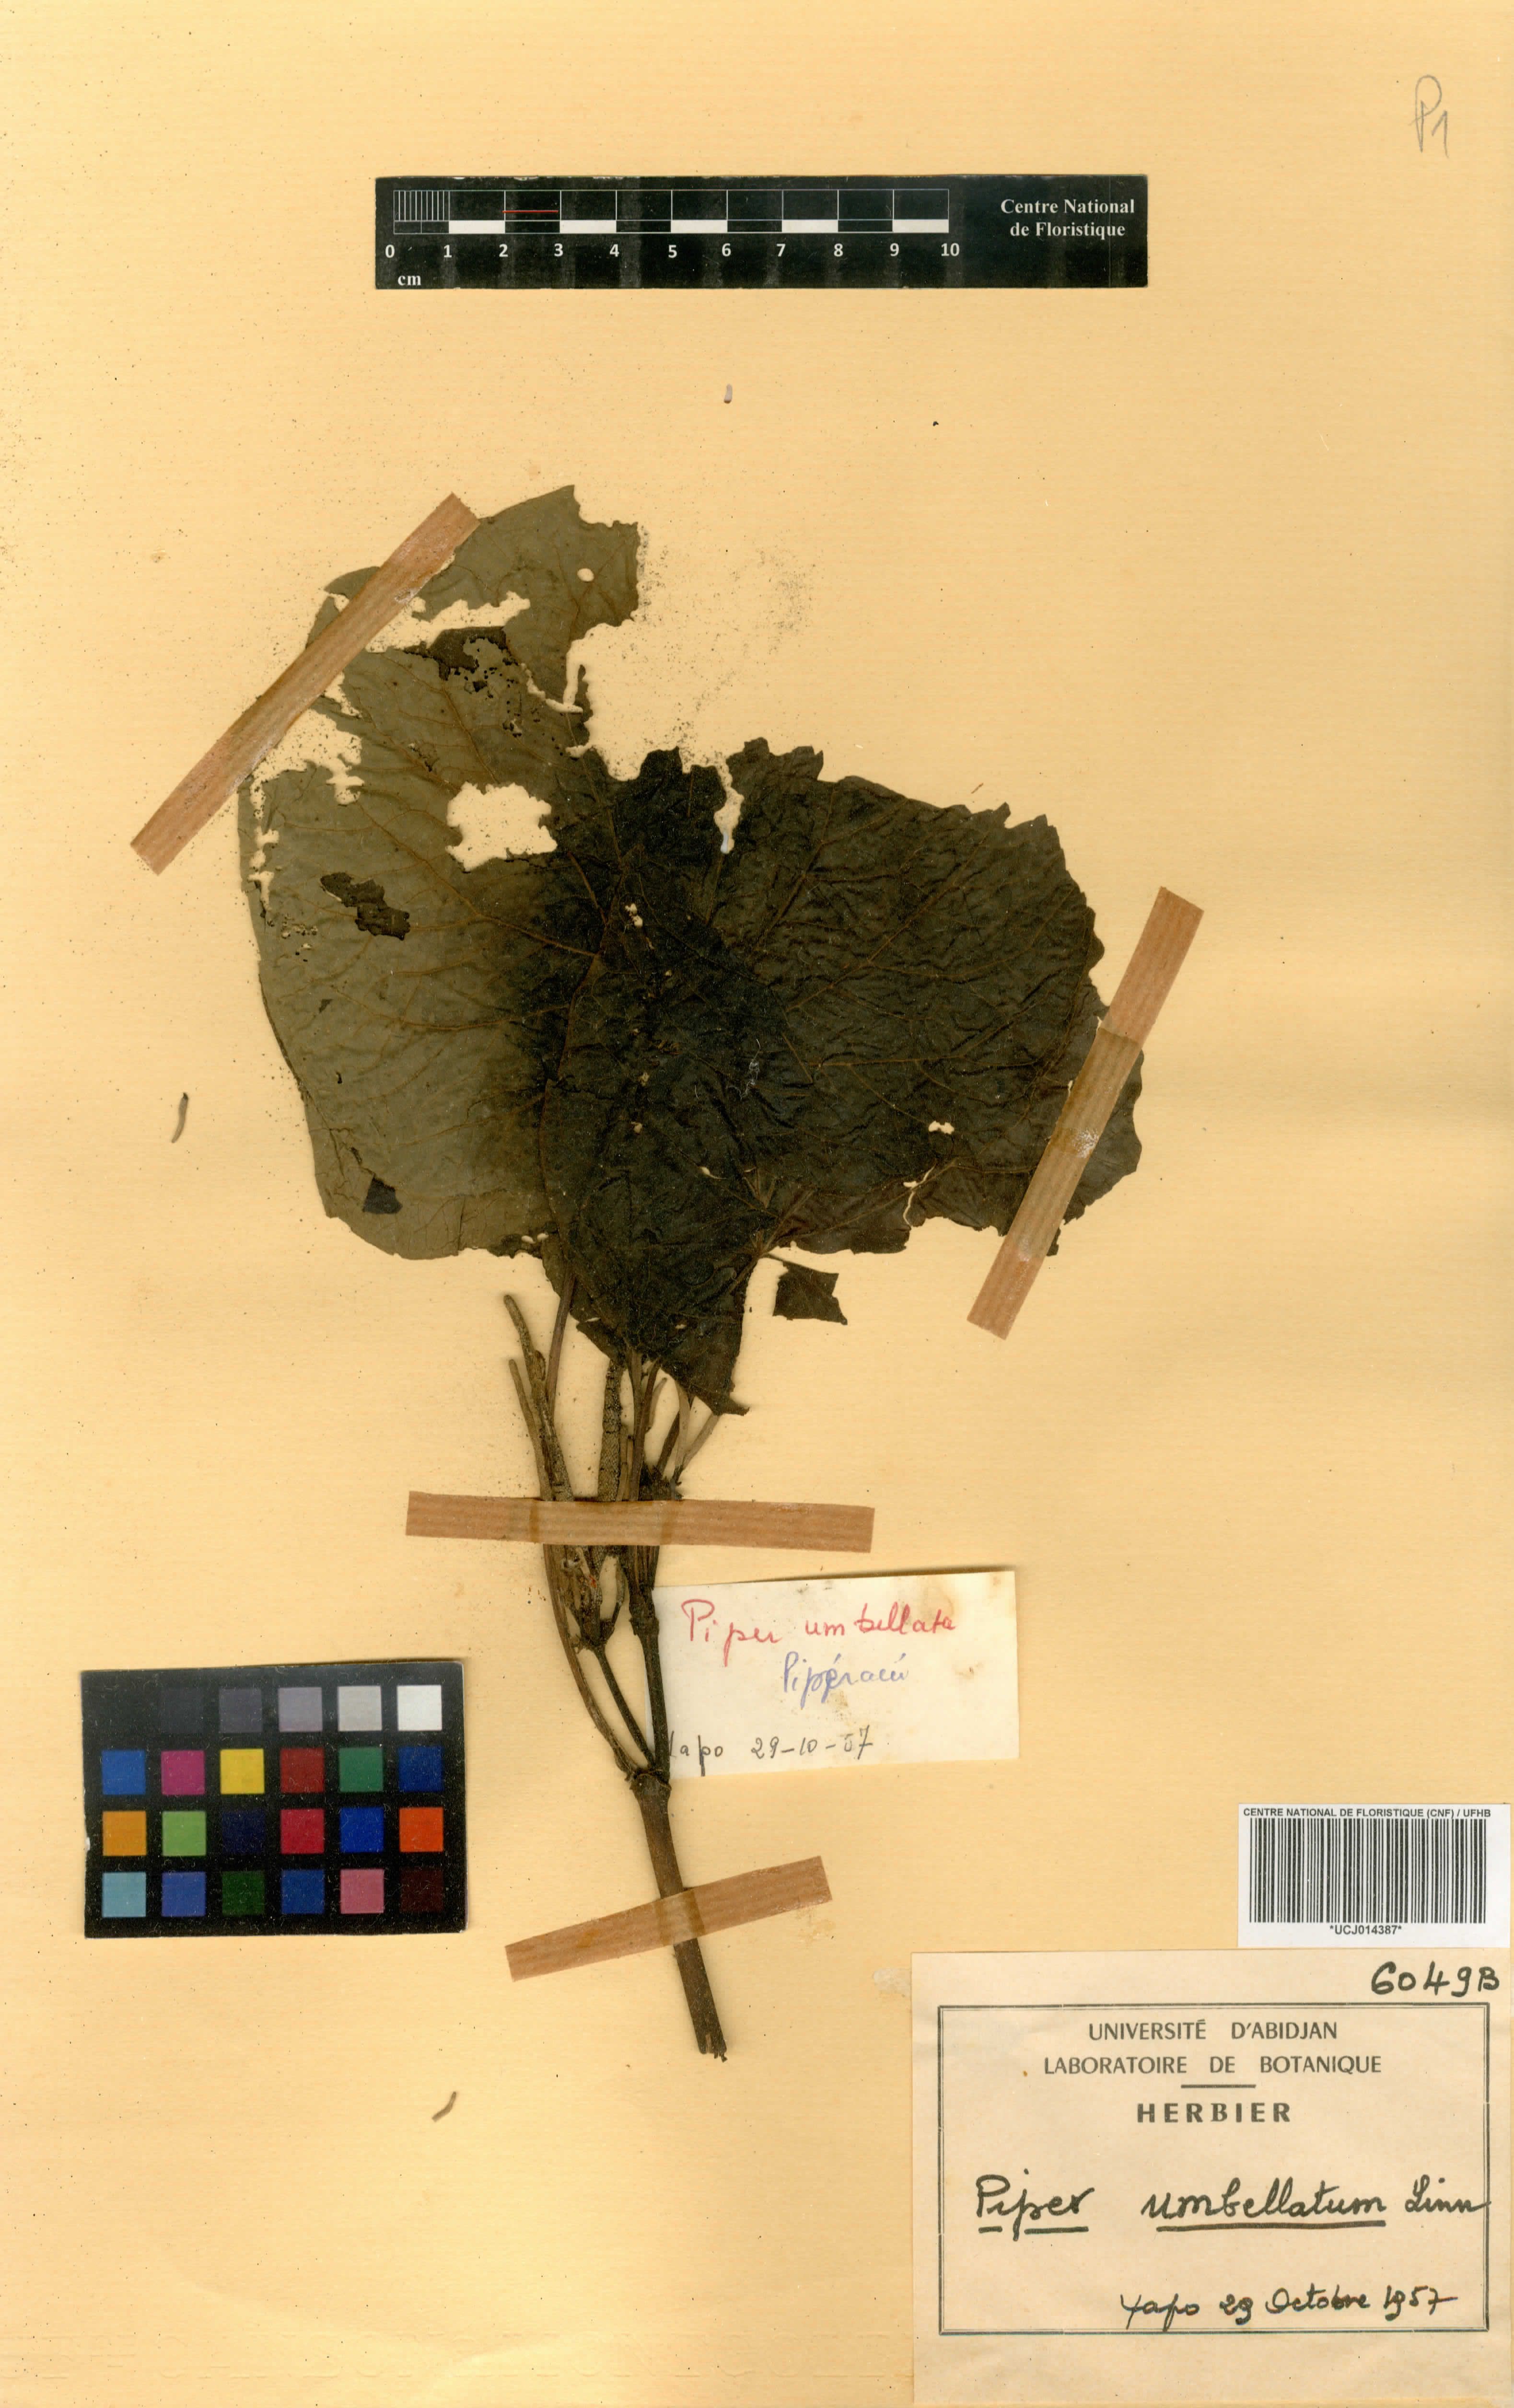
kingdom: Plantae
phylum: Tracheophyta
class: Magnoliopsida
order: Piperales
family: Piperaceae
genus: Piper
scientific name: Piper umbellatum
